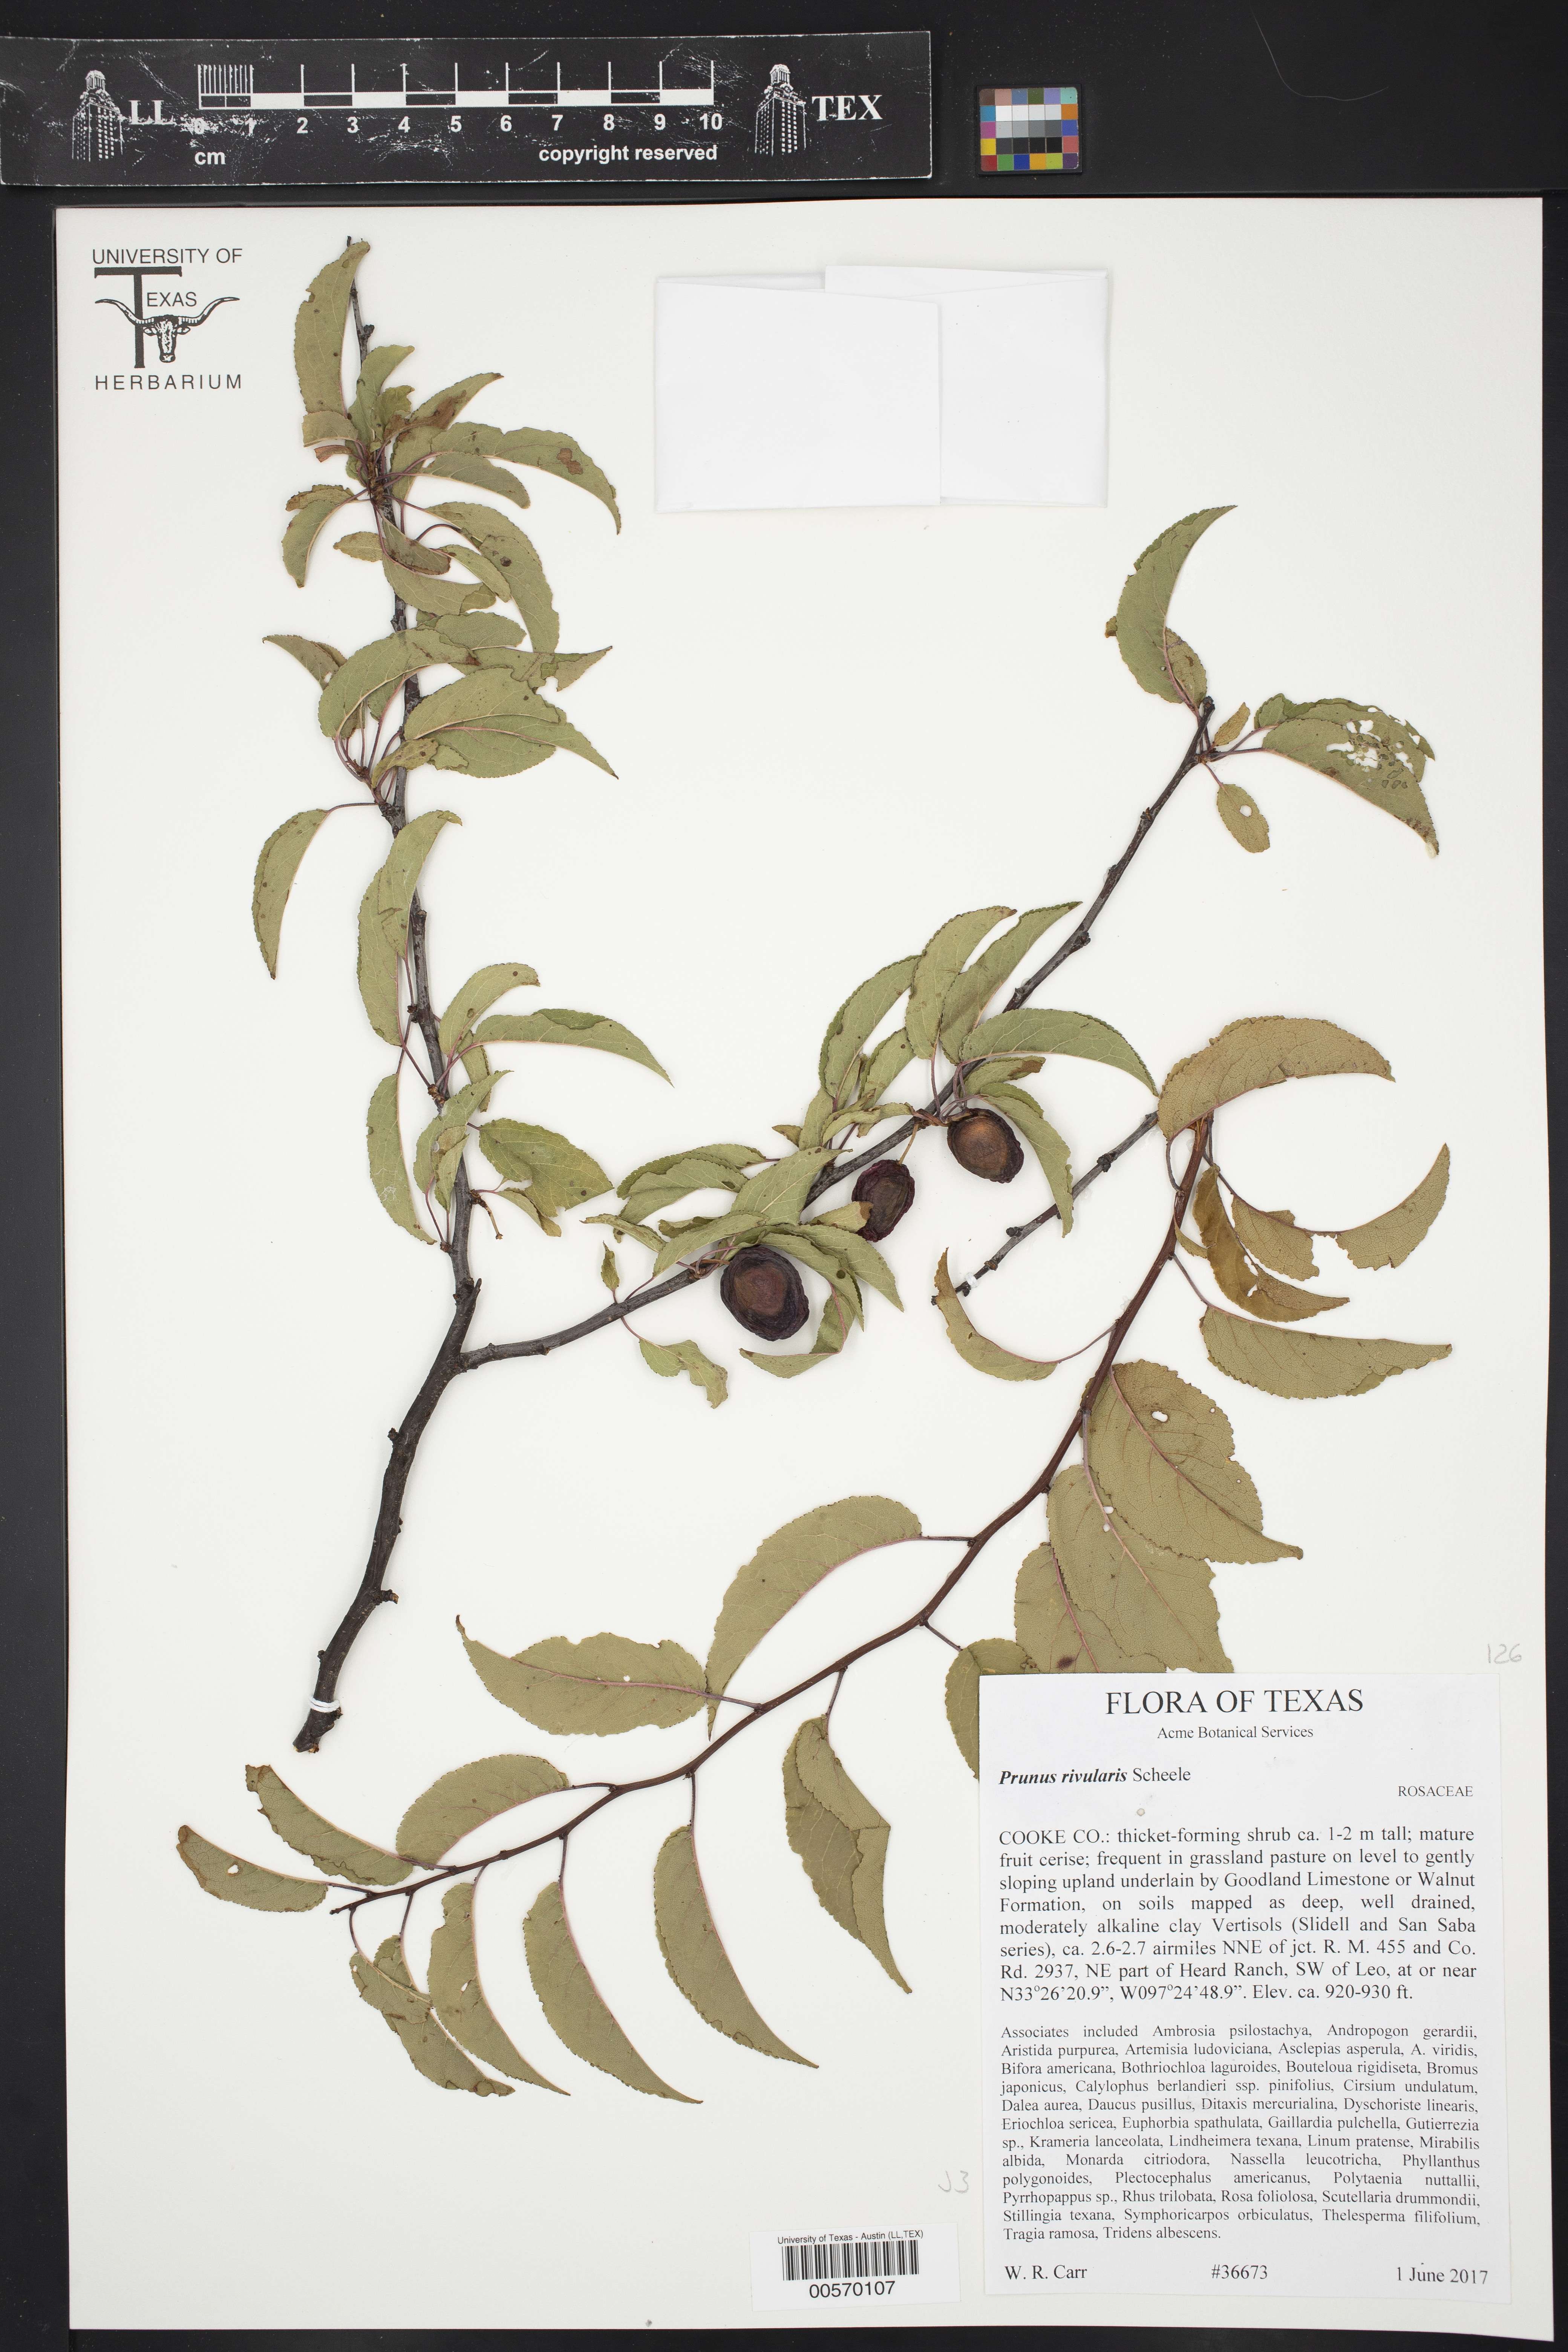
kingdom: Plantae
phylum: Tracheophyta
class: Magnoliopsida
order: Rosales
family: Rosaceae
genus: Prunus
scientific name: Prunus rivularis
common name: Creek plum
